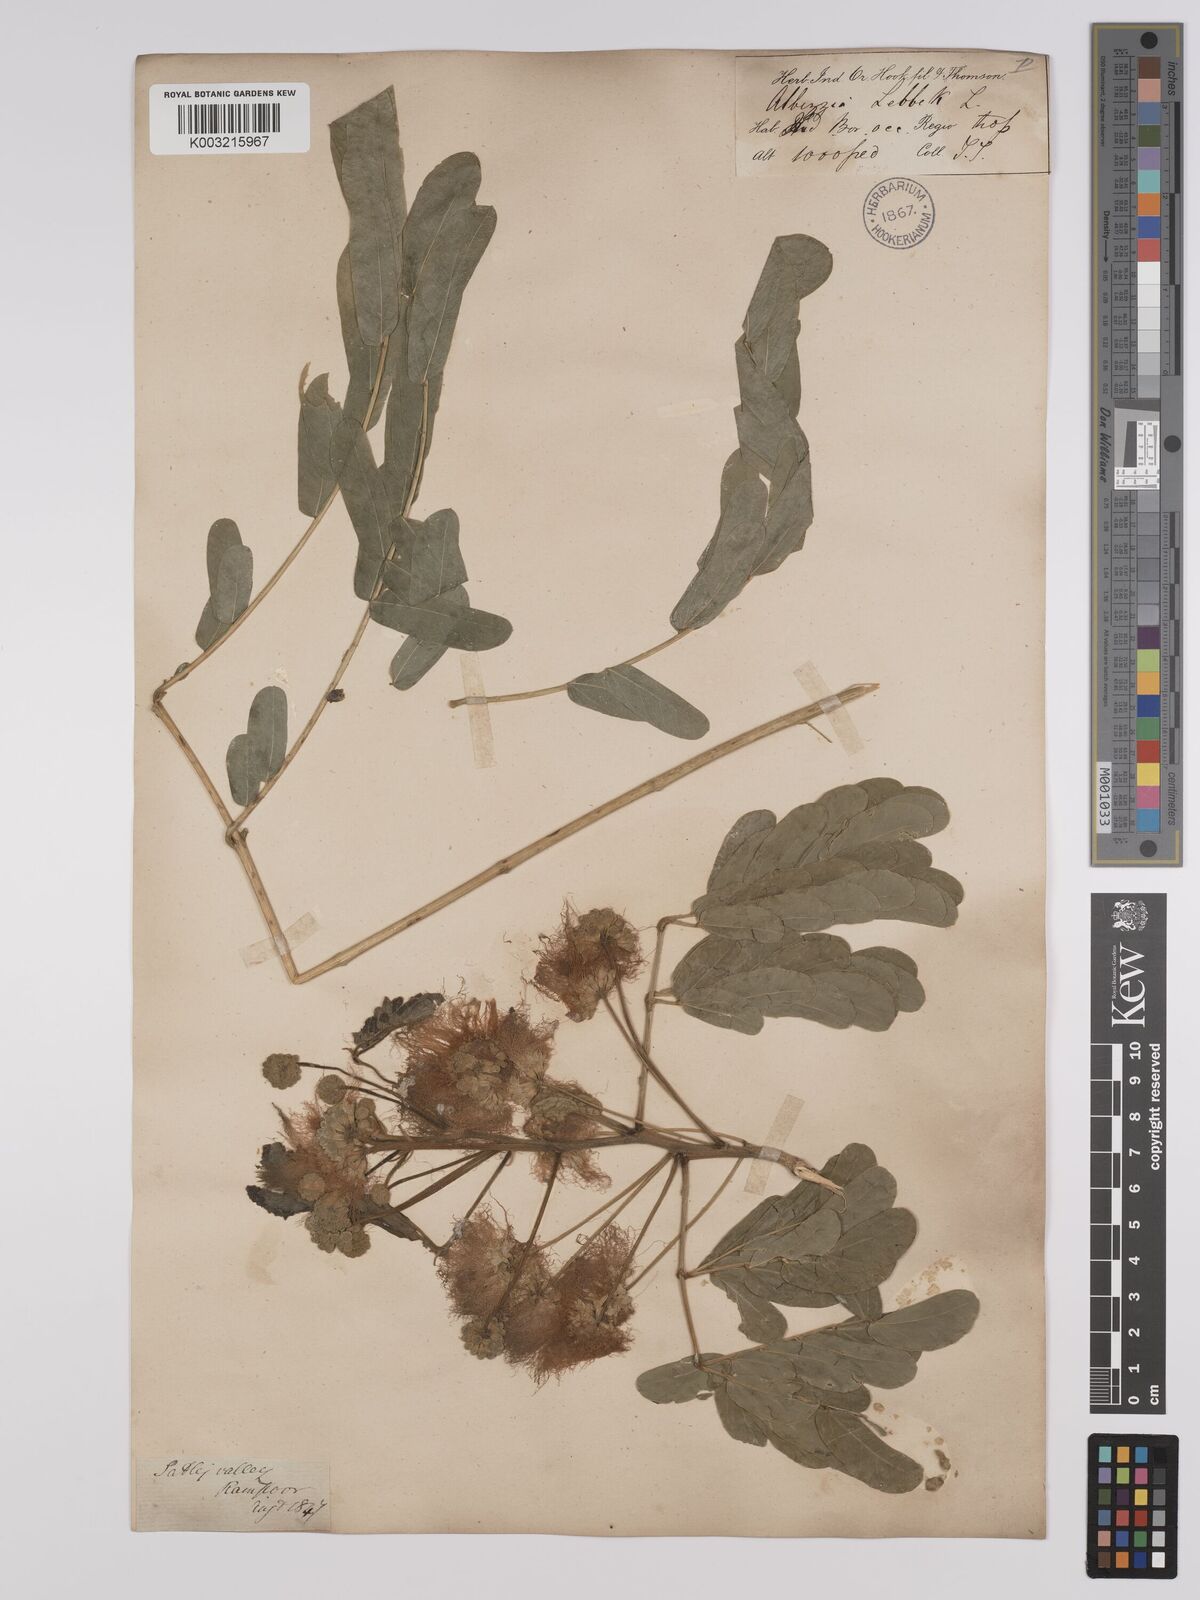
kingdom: Plantae
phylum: Tracheophyta
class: Magnoliopsida
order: Fabales
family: Fabaceae
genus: Albizia
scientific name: Albizia lebbeck
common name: Woman's tongue
